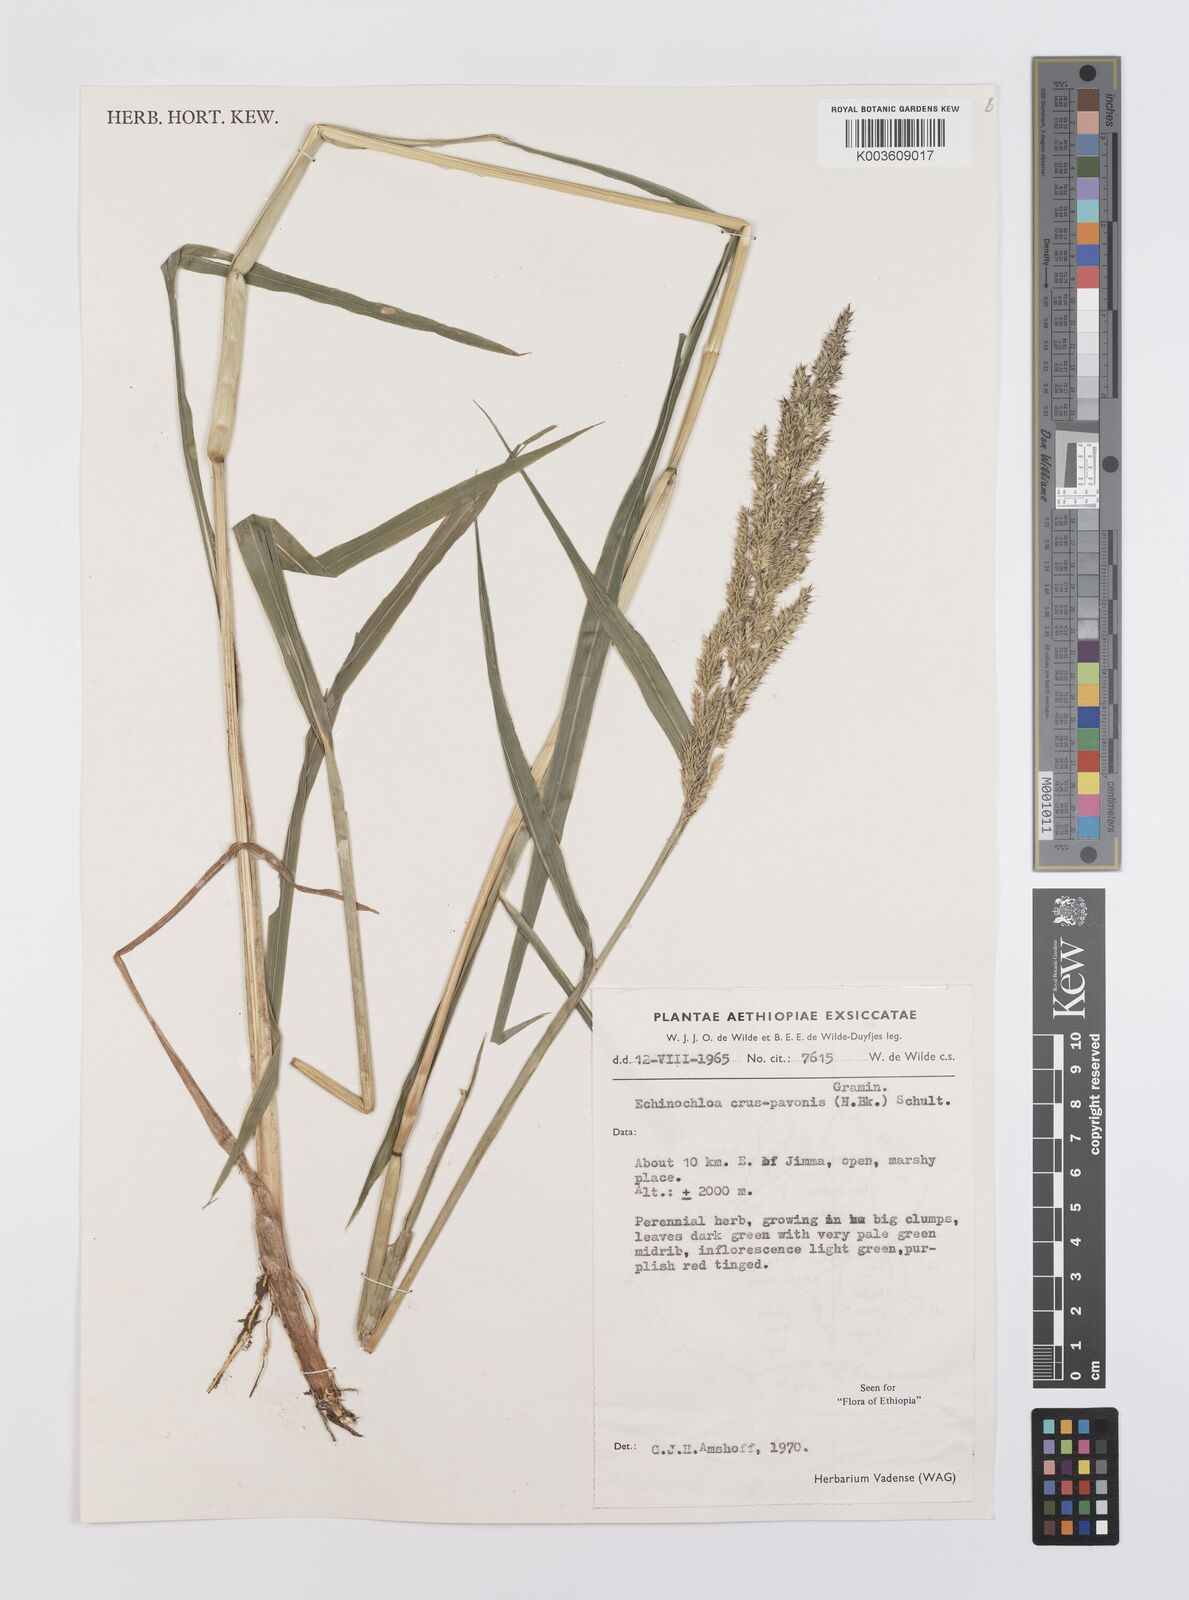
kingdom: Plantae
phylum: Tracheophyta
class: Liliopsida
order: Poales
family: Poaceae
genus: Echinochloa
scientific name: Echinochloa crus-pavonis
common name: Gulf cockspur grass
